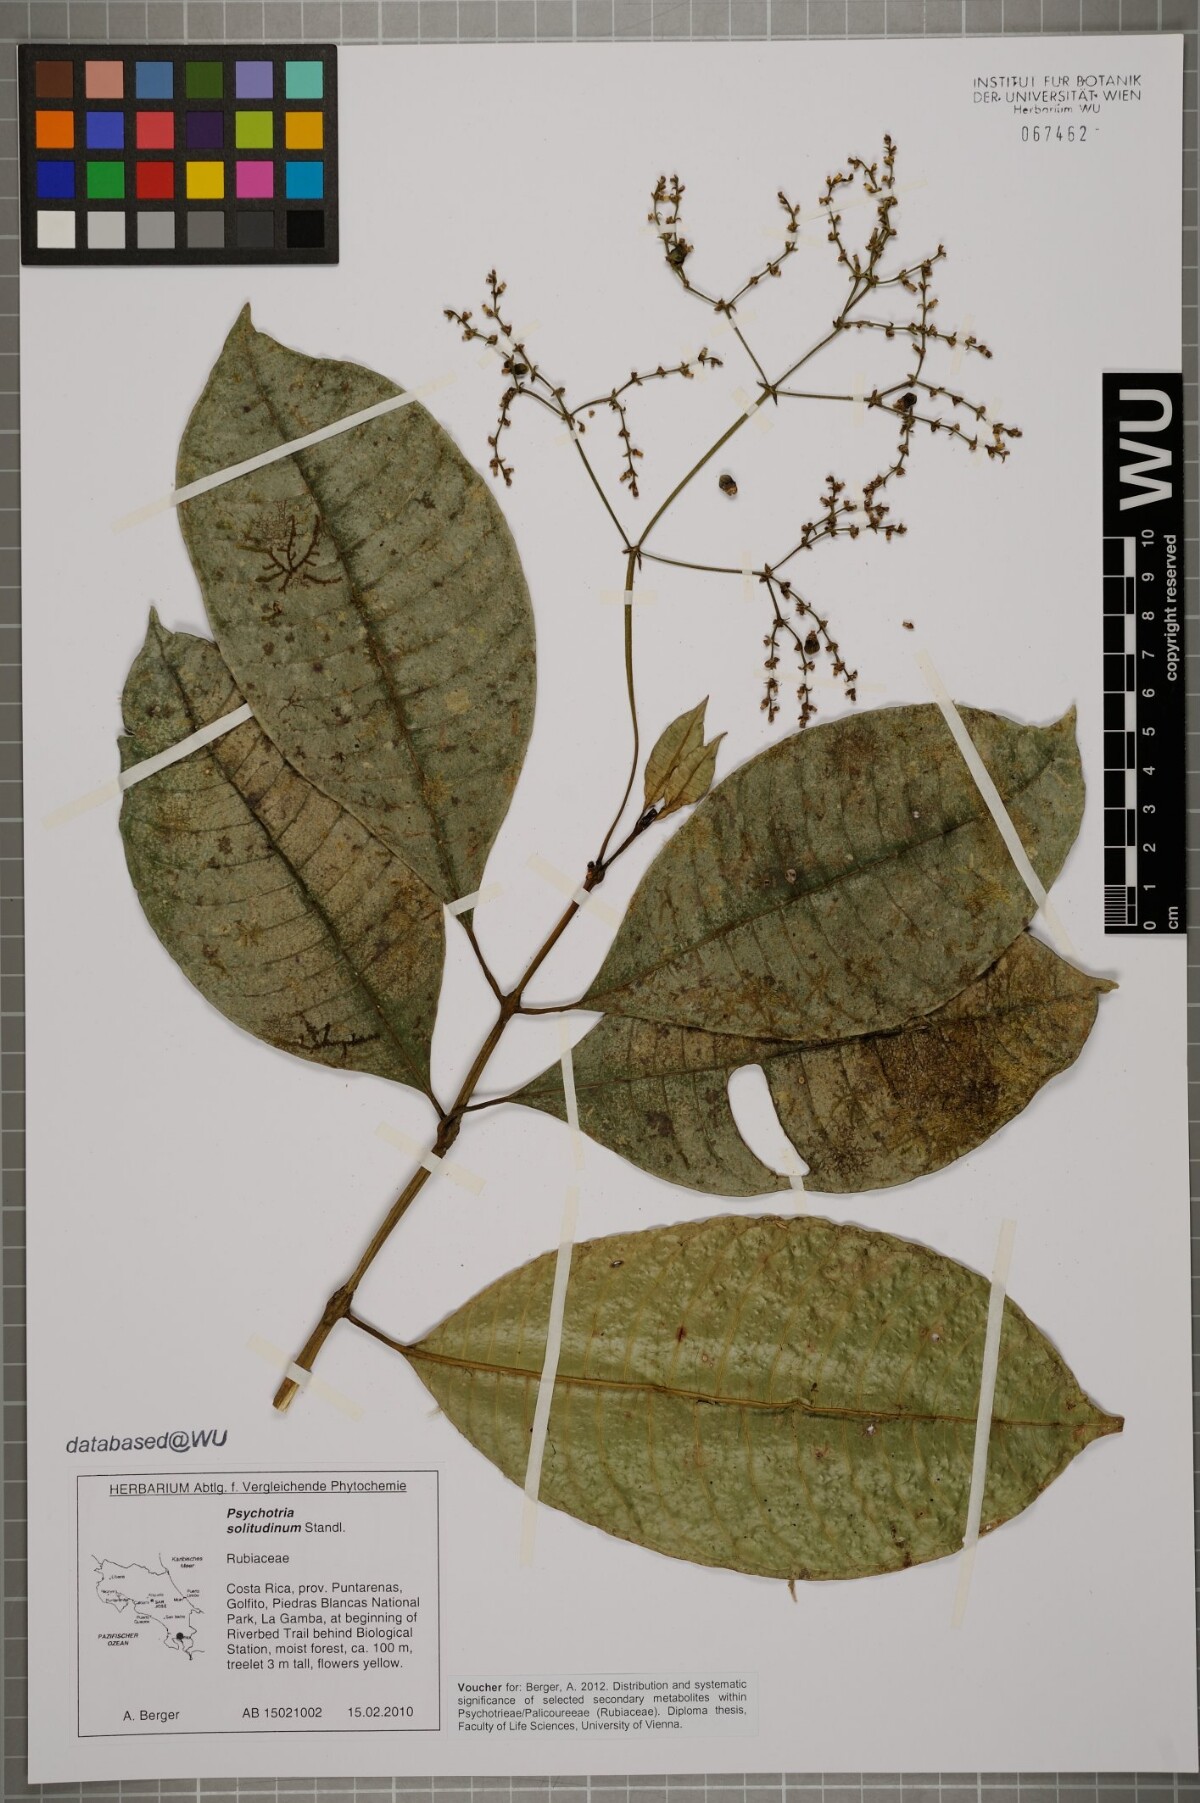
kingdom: Plantae
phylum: Tracheophyta
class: Magnoliopsida
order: Gentianales
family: Rubiaceae
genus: Palicourea
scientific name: Palicourea solitudinum
